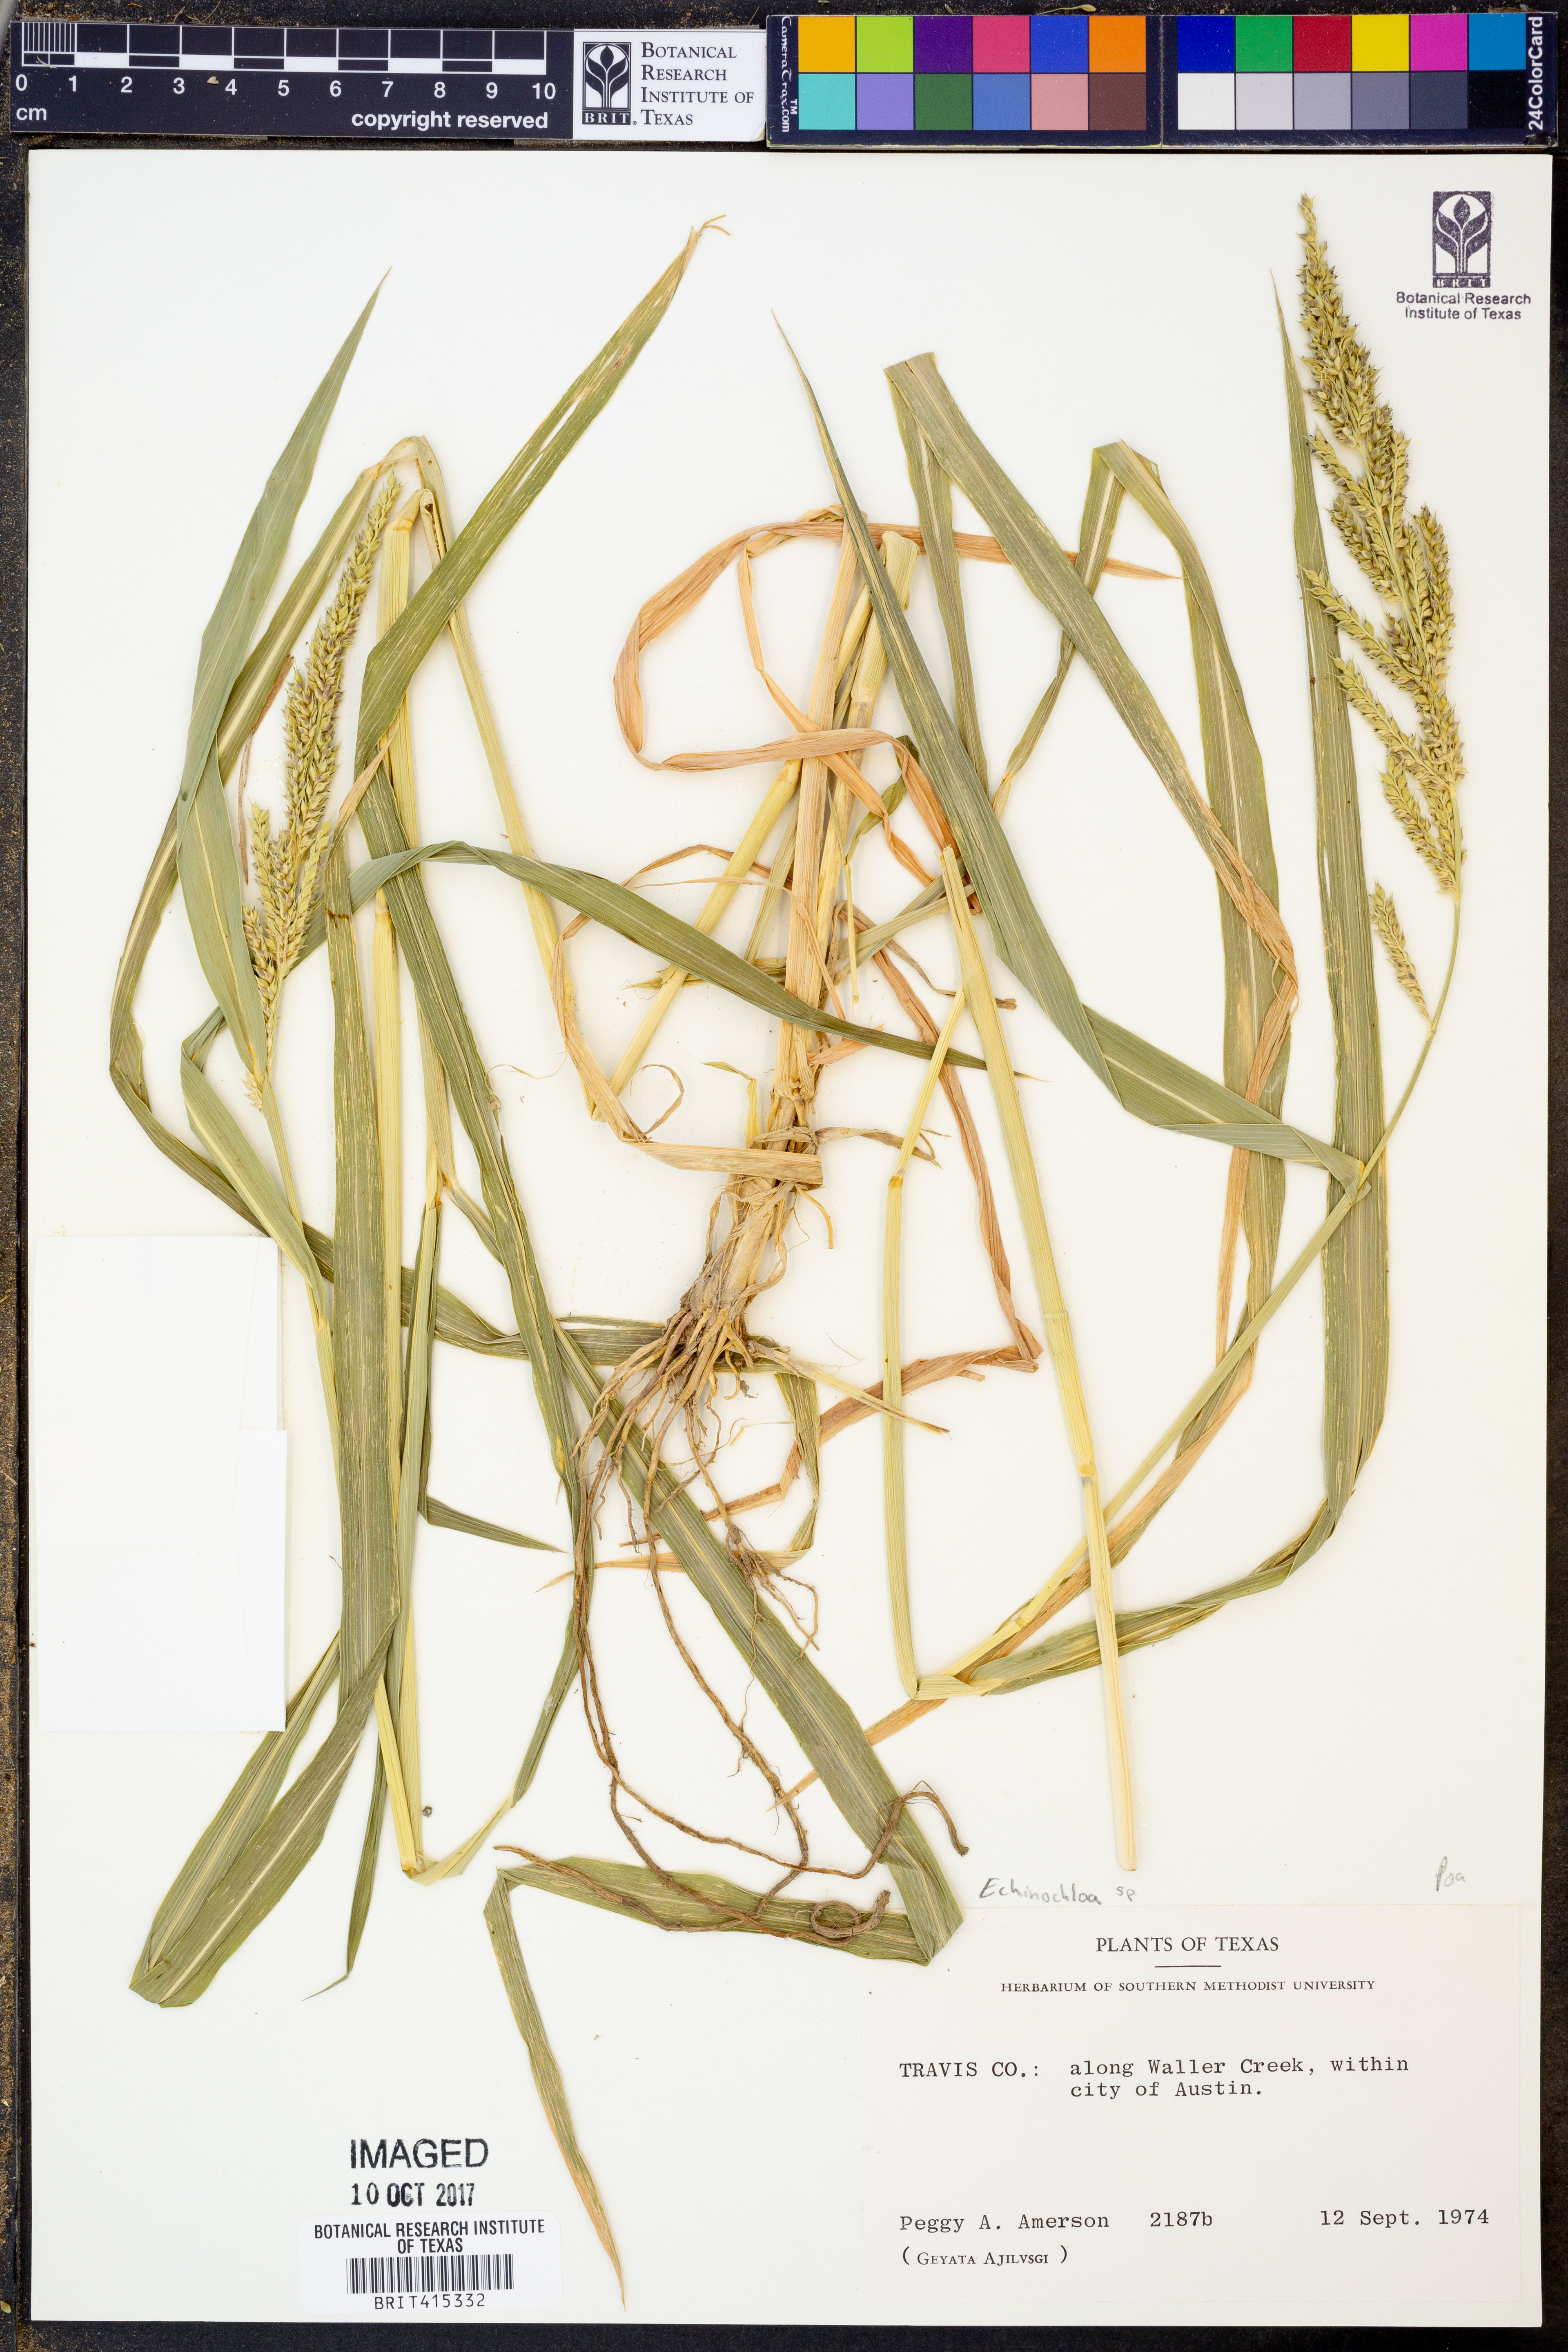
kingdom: Plantae
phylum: Tracheophyta
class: Liliopsida
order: Poales
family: Poaceae
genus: Echinochloa
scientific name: Echinochloa
